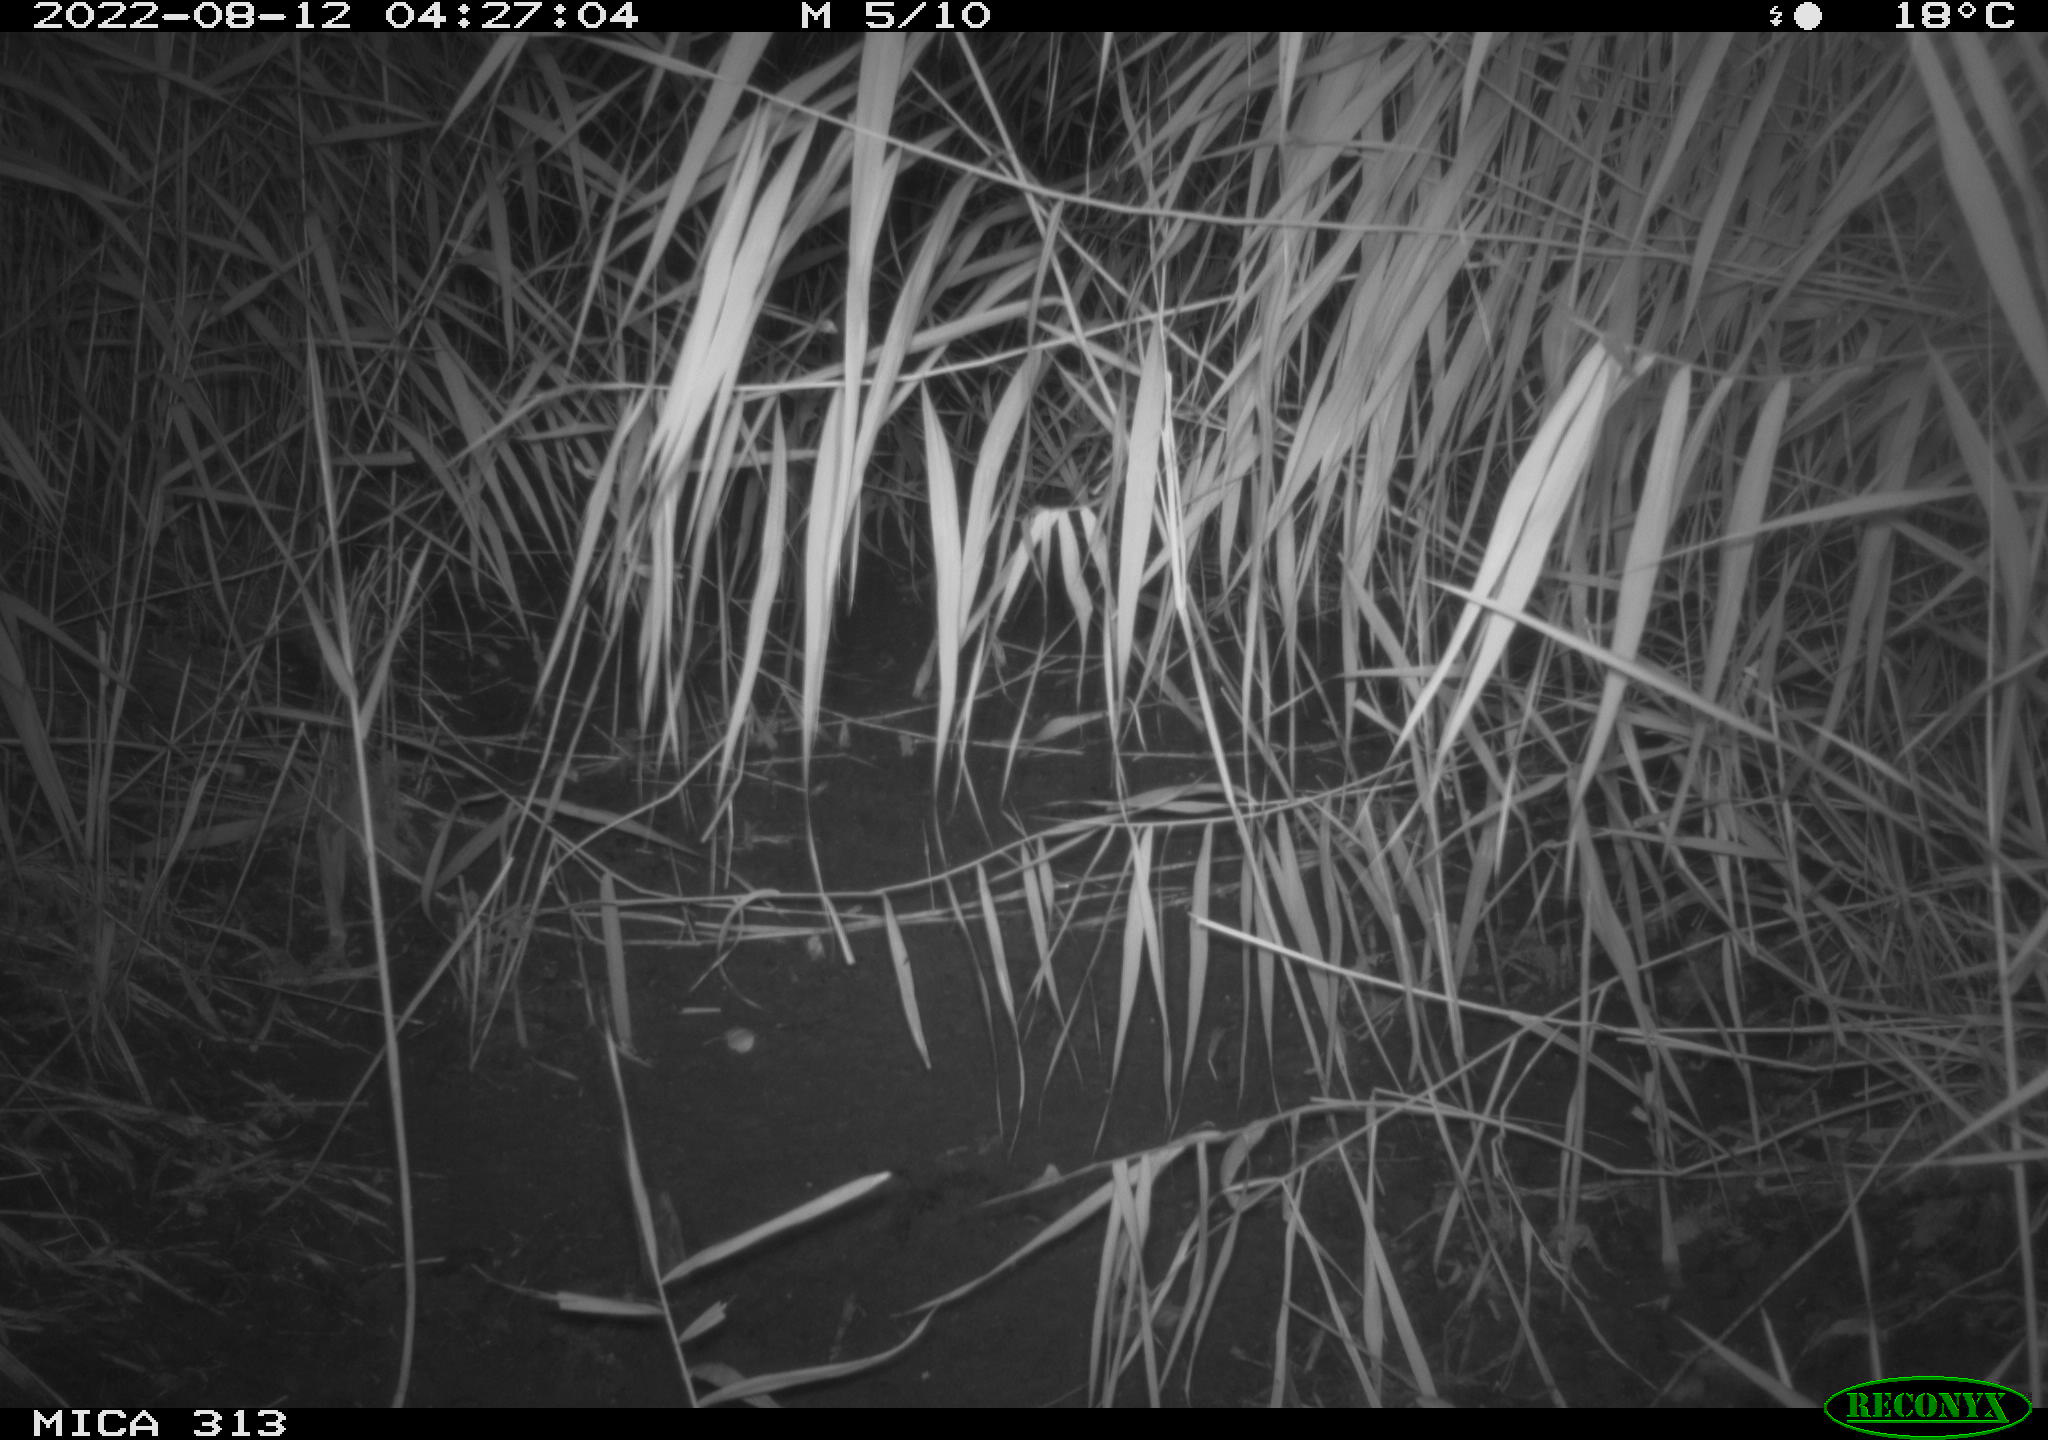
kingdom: Animalia
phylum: Chordata
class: Mammalia
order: Rodentia
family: Muridae
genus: Rattus
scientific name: Rattus norvegicus
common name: Brown rat
